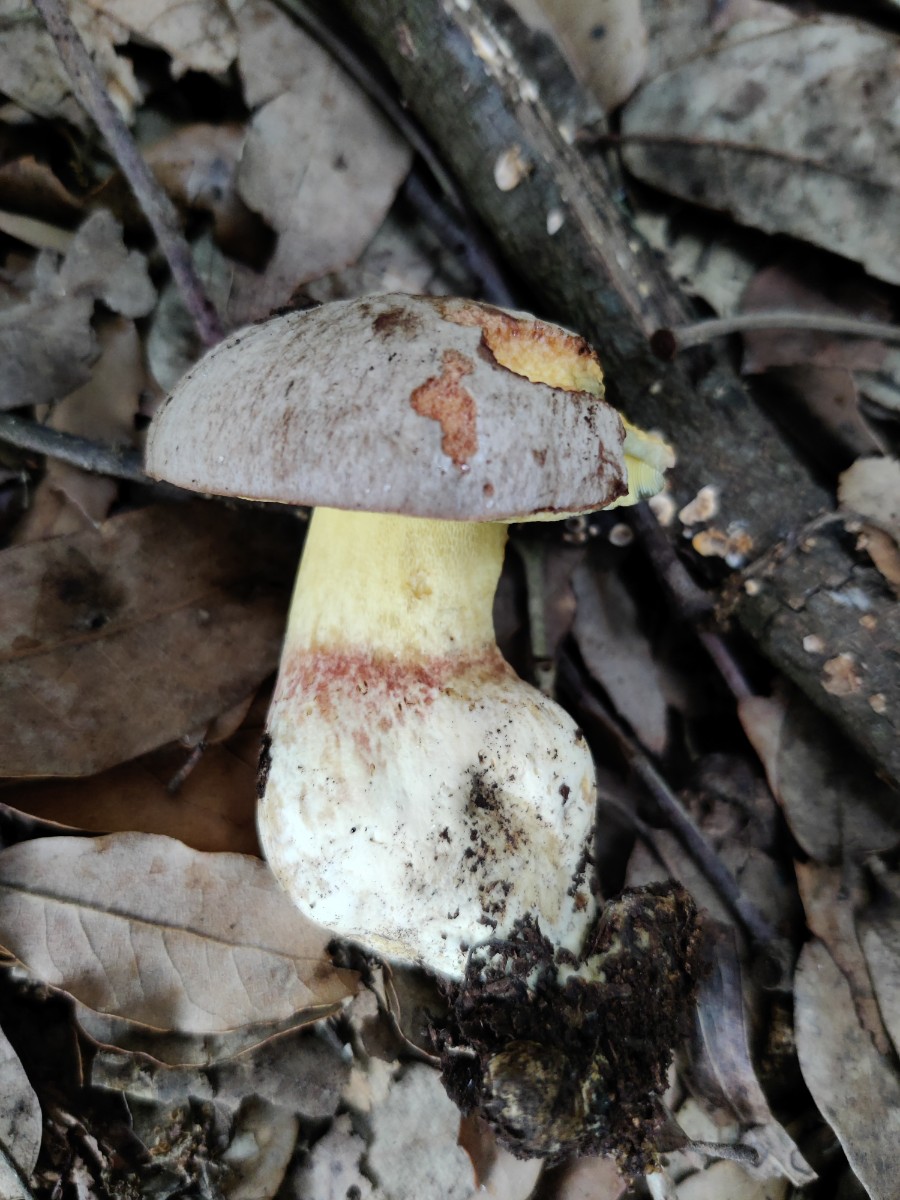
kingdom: Fungi
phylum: Basidiomycota
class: Agaricomycetes
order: Boletales
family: Boletaceae
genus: Butyriboletus
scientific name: Butyriboletus fechtneri
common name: sølvskinnende rørhat
